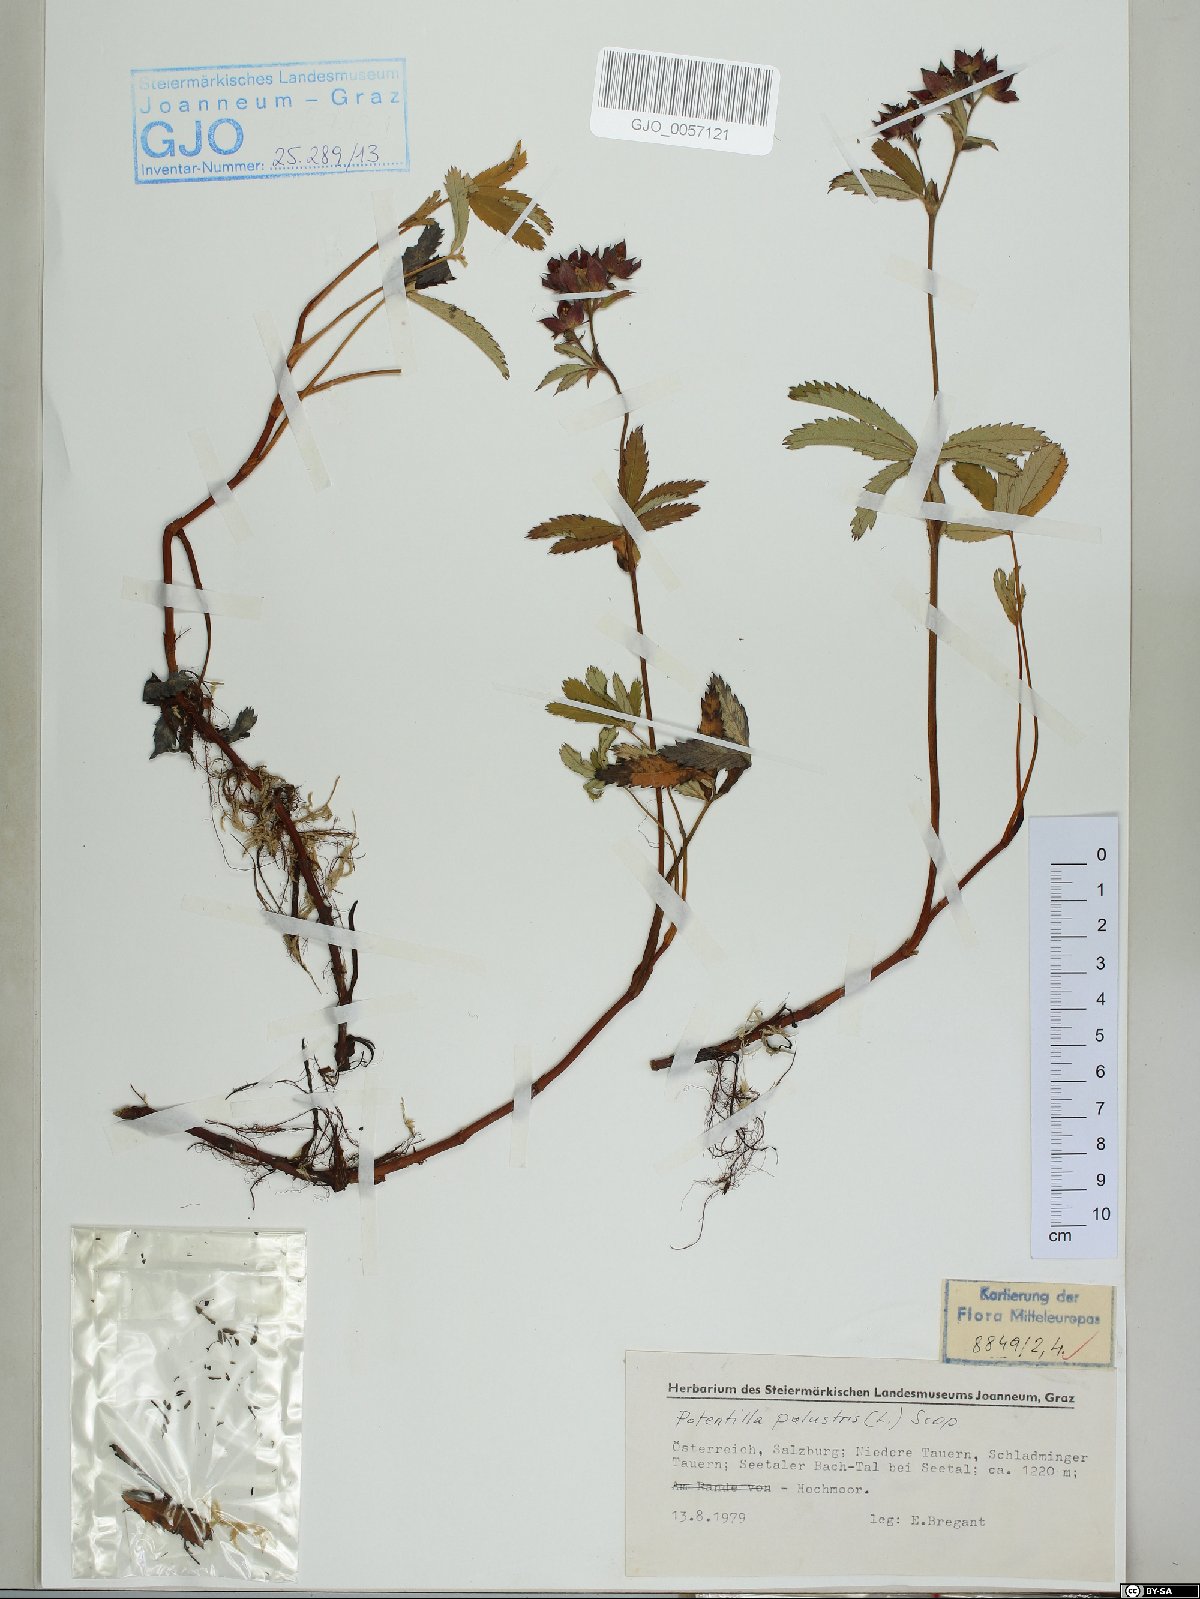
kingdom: Plantae
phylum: Tracheophyta
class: Magnoliopsida
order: Rosales
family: Rosaceae
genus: Comarum
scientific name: Comarum palustre
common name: Marsh cinquefoil
